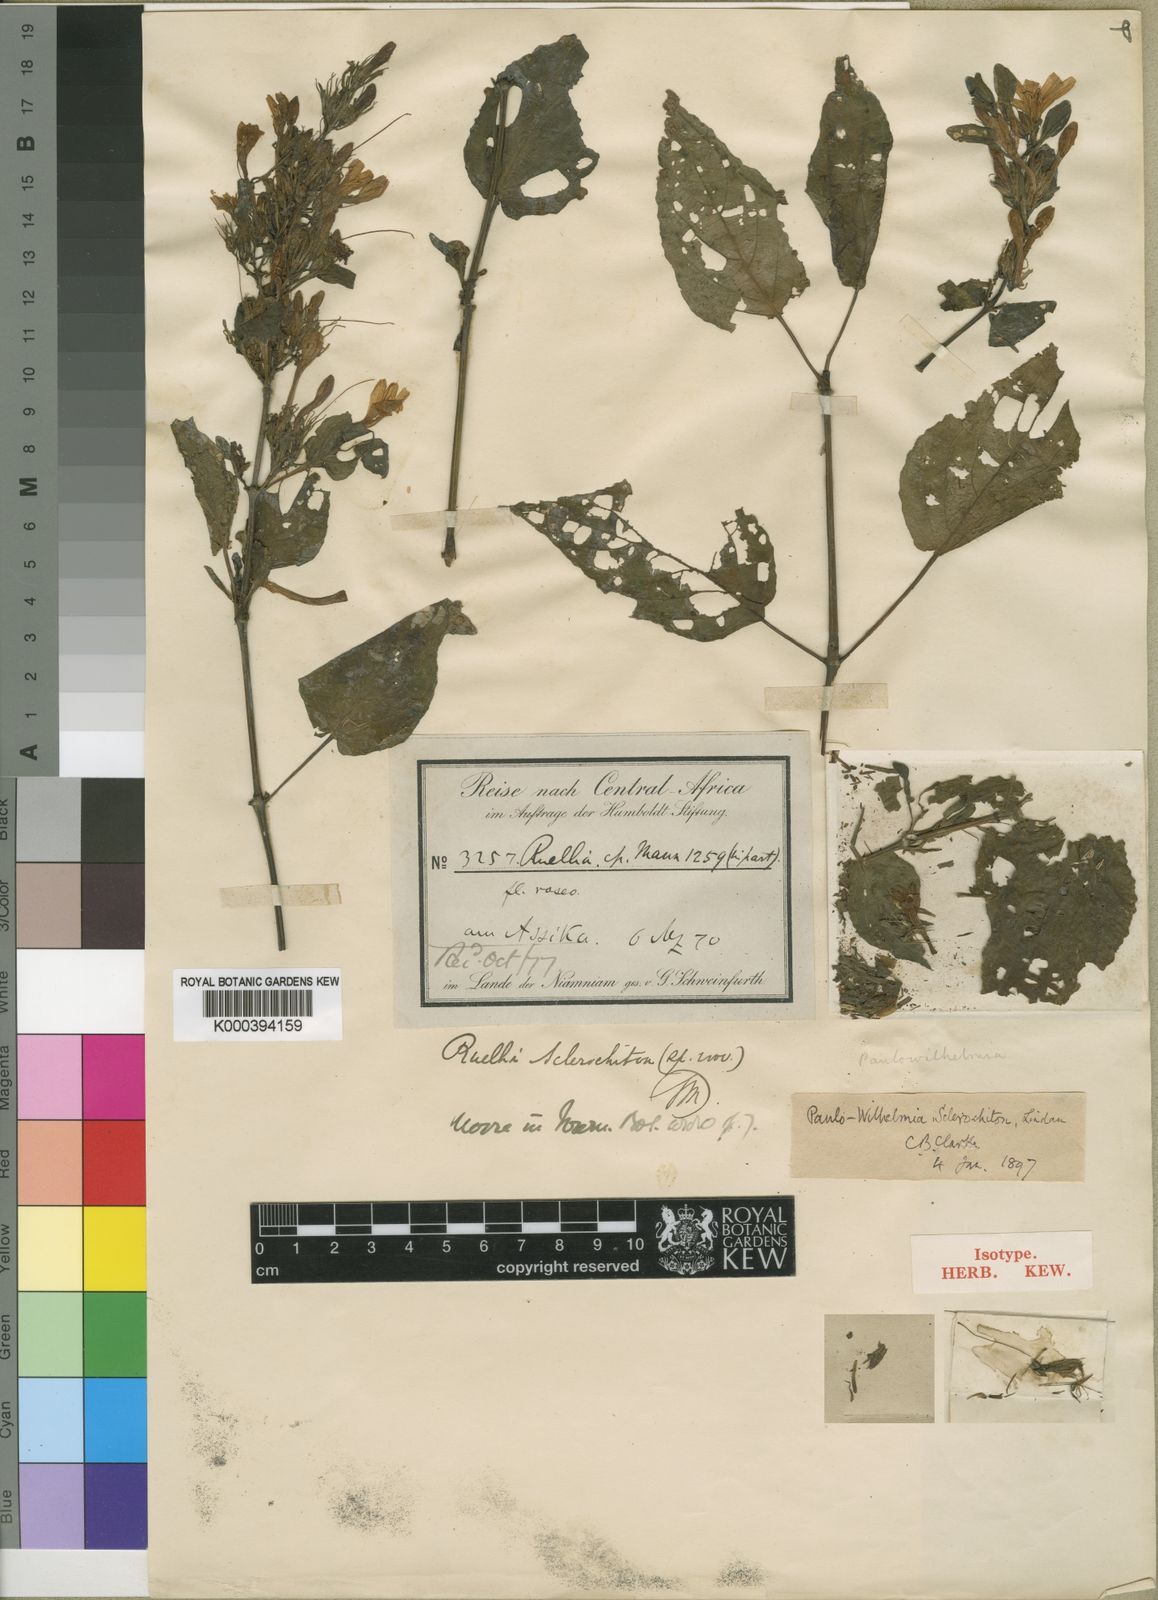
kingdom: Plantae
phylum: Tracheophyta
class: Magnoliopsida
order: Lamiales
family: Acanthaceae
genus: Eremomastax
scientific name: Eremomastax speciosa
